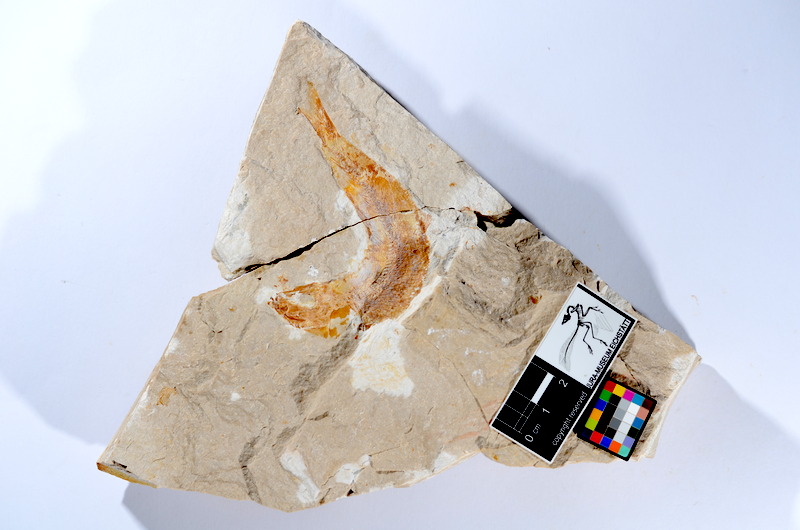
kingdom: Animalia
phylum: Chordata
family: Ascalaboidae
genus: Tharsis
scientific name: Tharsis dubius
